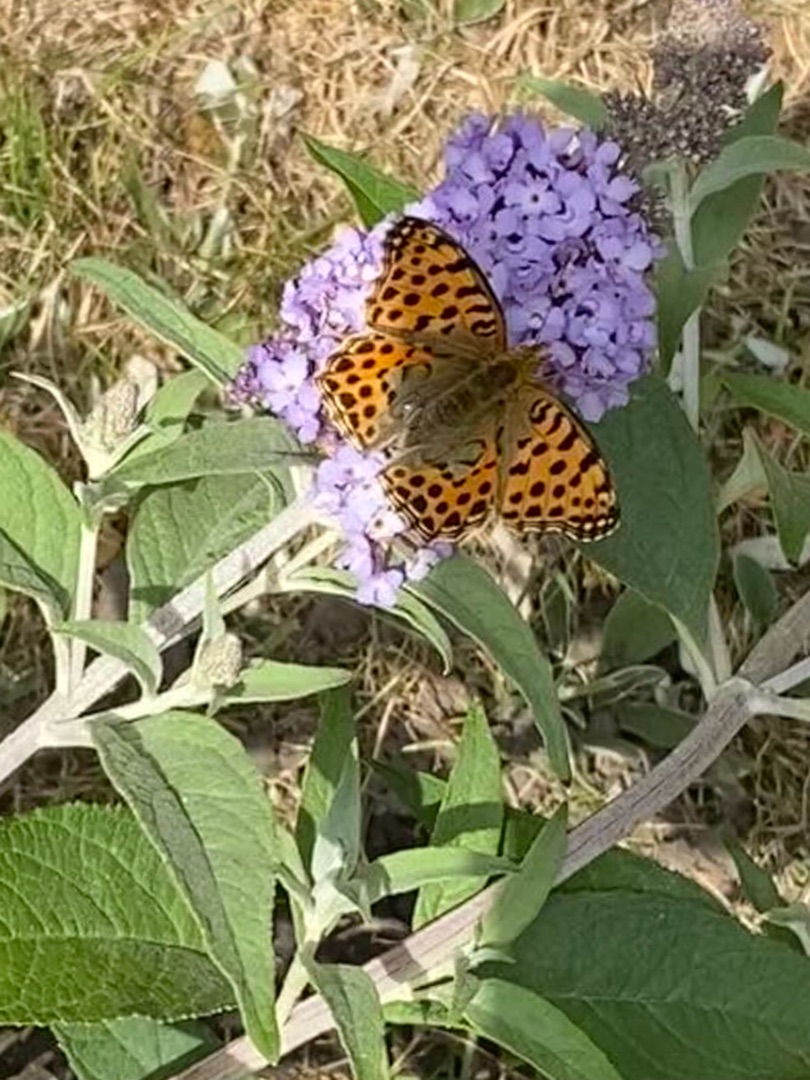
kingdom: Animalia
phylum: Arthropoda
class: Insecta
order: Lepidoptera
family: Nymphalidae
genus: Issoria
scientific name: Issoria lathonia
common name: Storplettet perlemorsommerfugl
